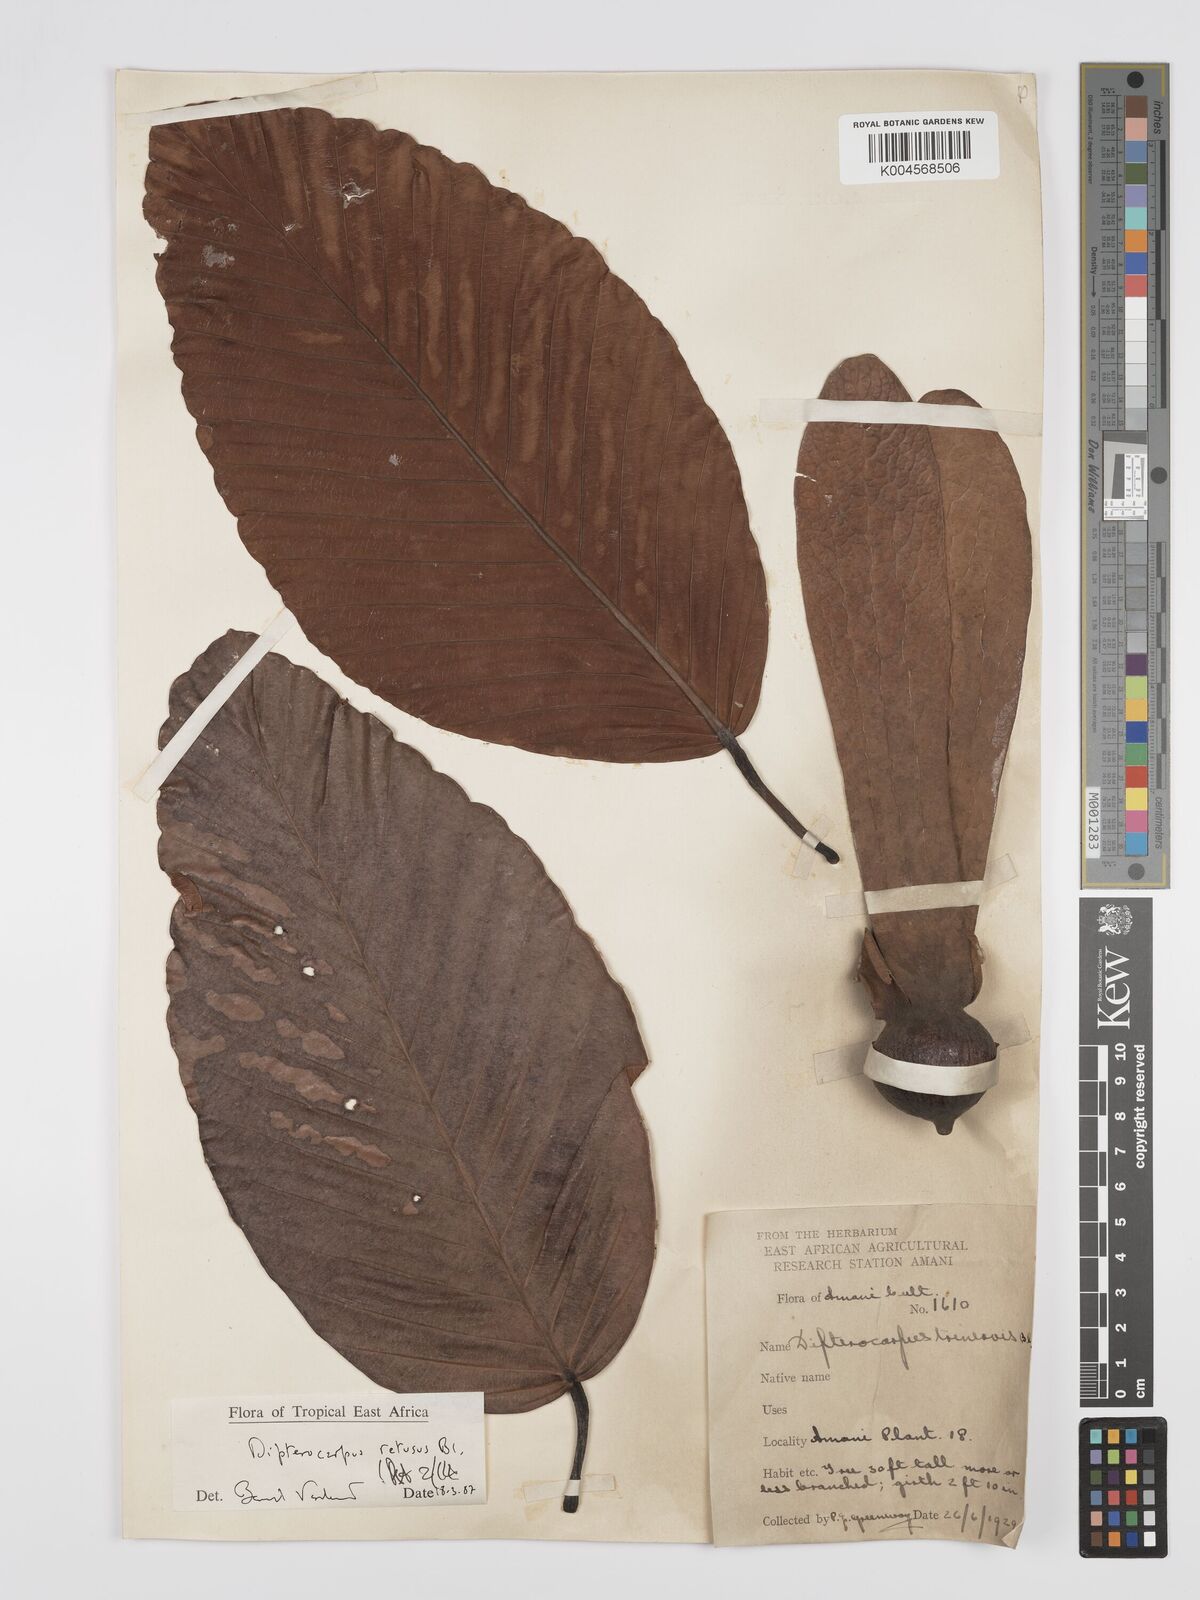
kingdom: Plantae
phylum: Tracheophyta
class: Magnoliopsida
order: Malvales
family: Dipterocarpaceae
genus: Dipterocarpus
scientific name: Dipterocarpus retusus
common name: Hollong
